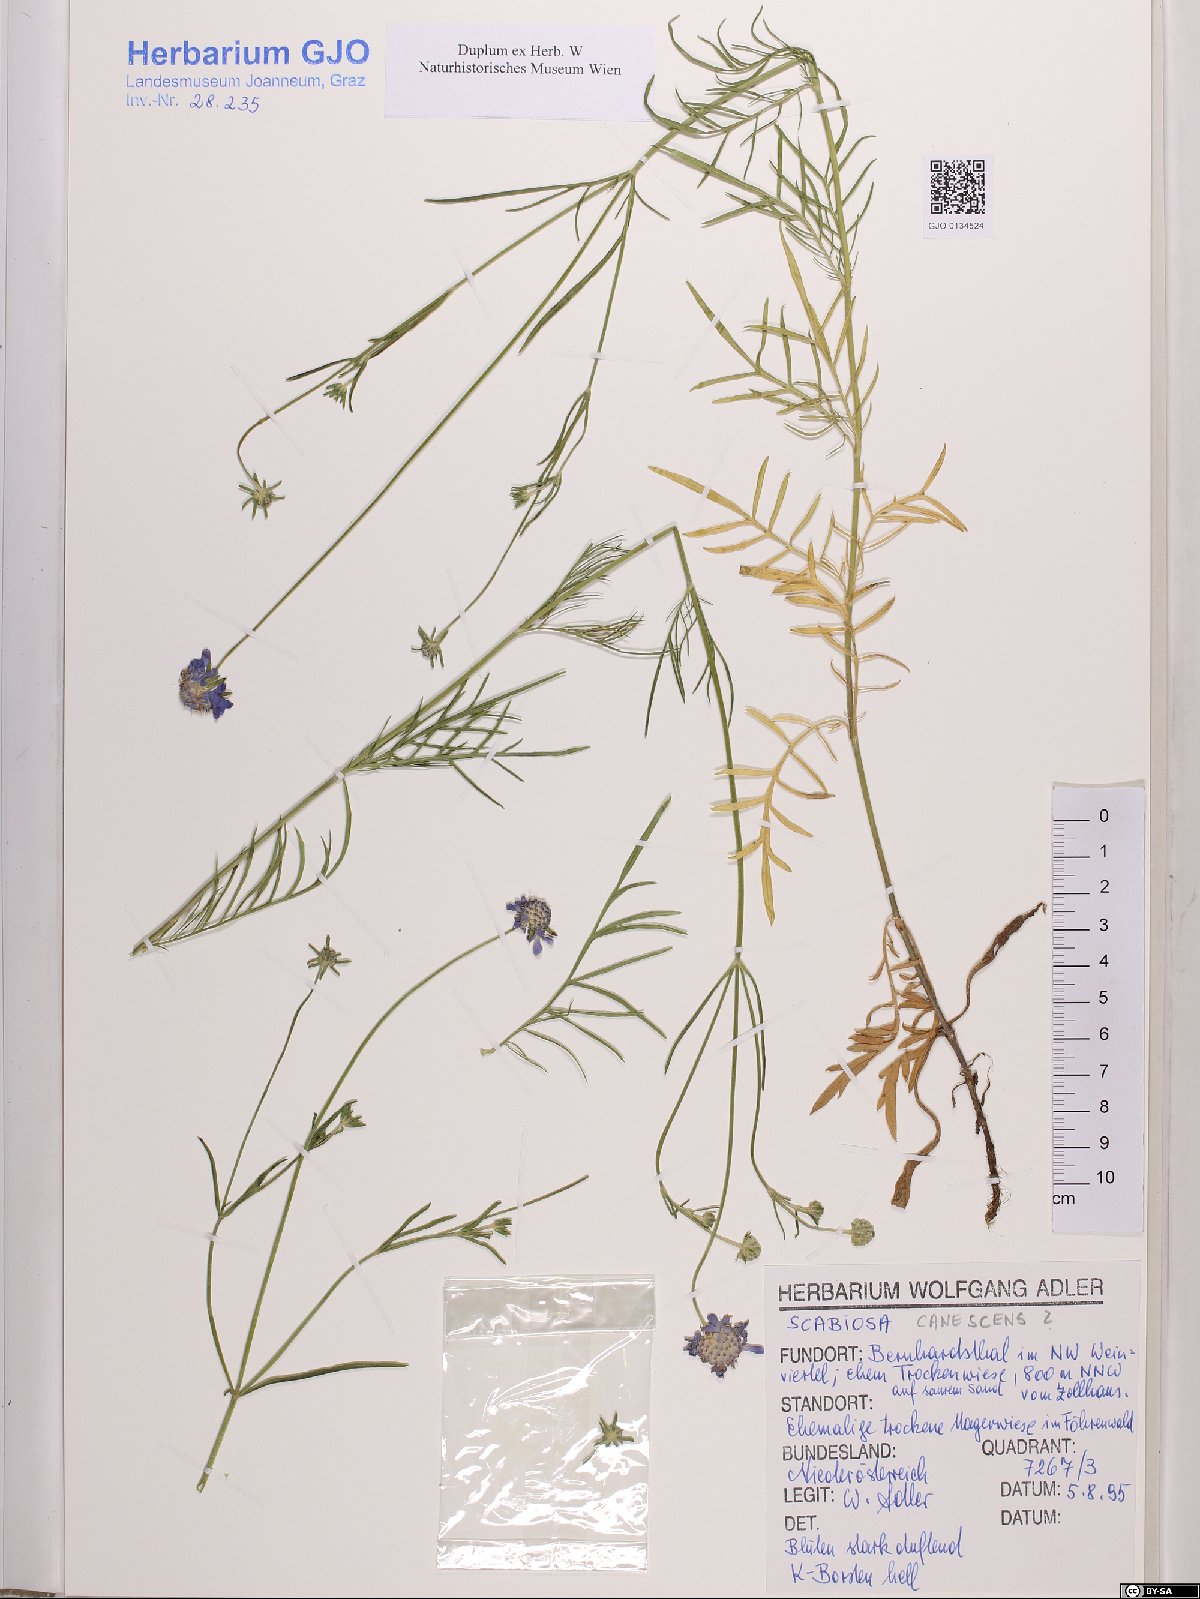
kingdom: Plantae
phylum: Tracheophyta
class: Magnoliopsida
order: Dipsacales
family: Caprifoliaceae
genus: Scabiosa
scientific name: Scabiosa canescens
